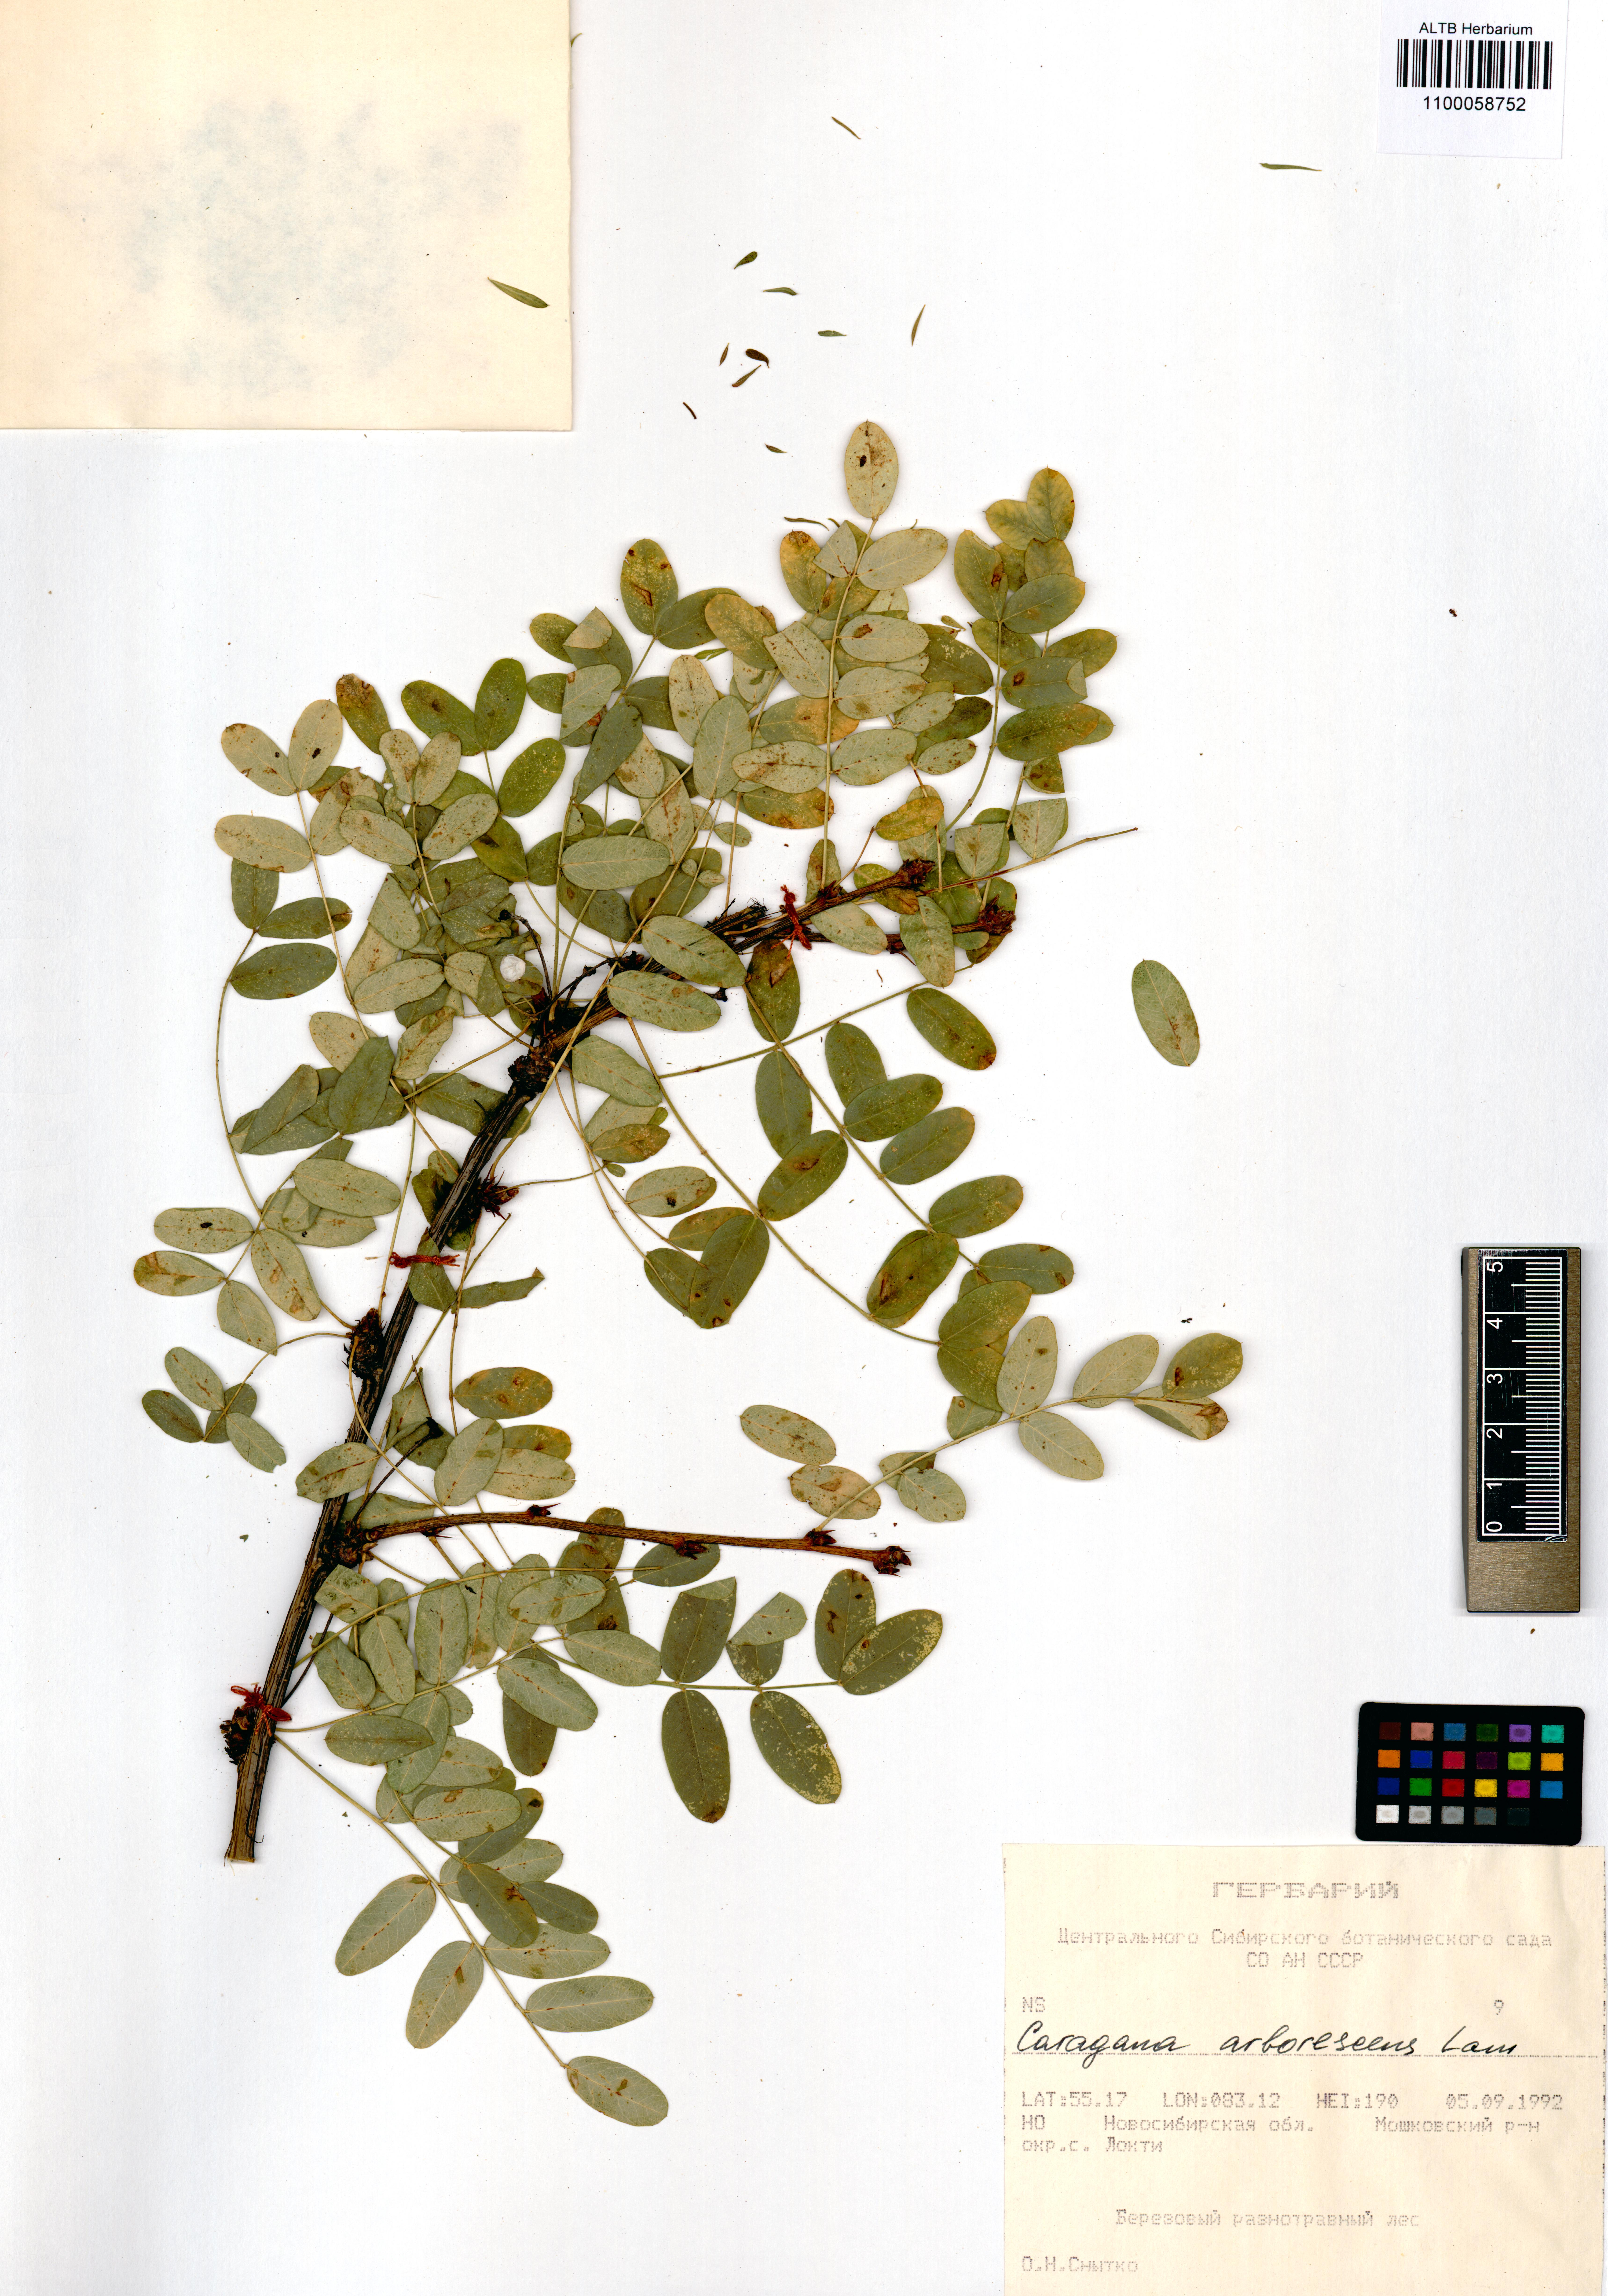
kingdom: Plantae
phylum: Tracheophyta
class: Magnoliopsida
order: Fabales
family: Fabaceae
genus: Caragana
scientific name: Caragana arborescens
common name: Siberian peashrub
